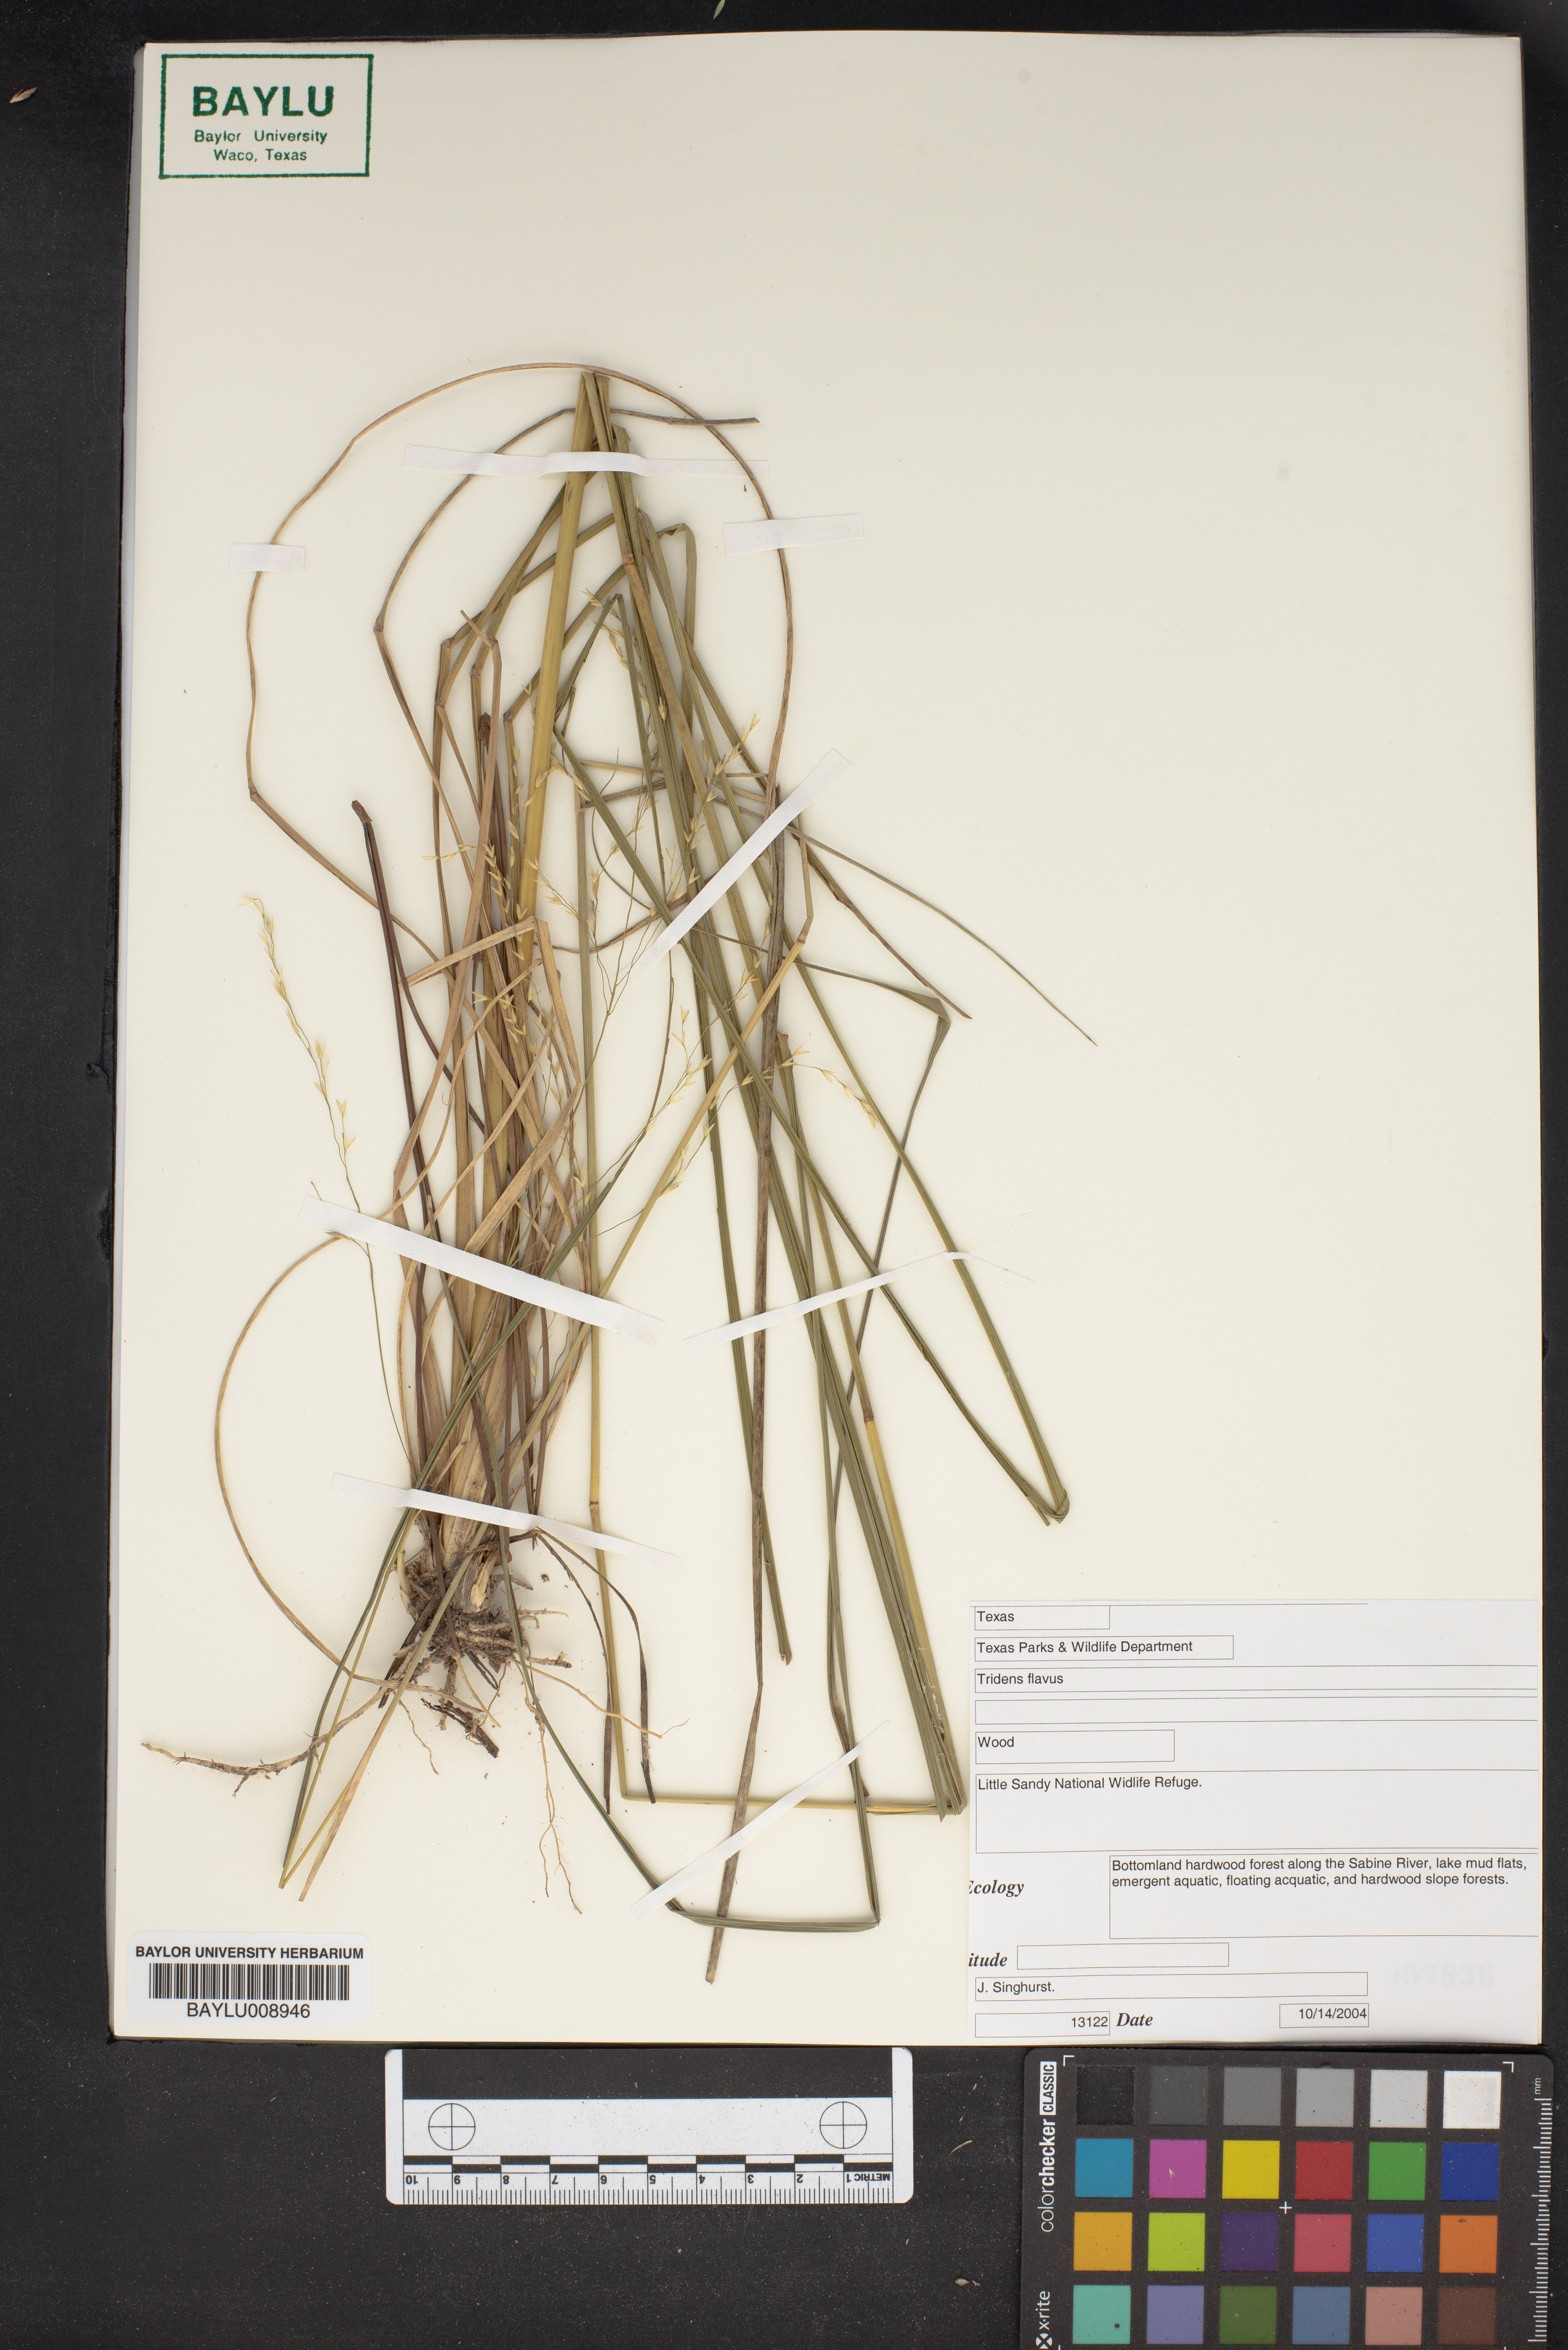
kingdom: Plantae
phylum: Tracheophyta
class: Liliopsida
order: Poales
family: Poaceae
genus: Tridens
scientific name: Tridens flavus
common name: Purpletop
